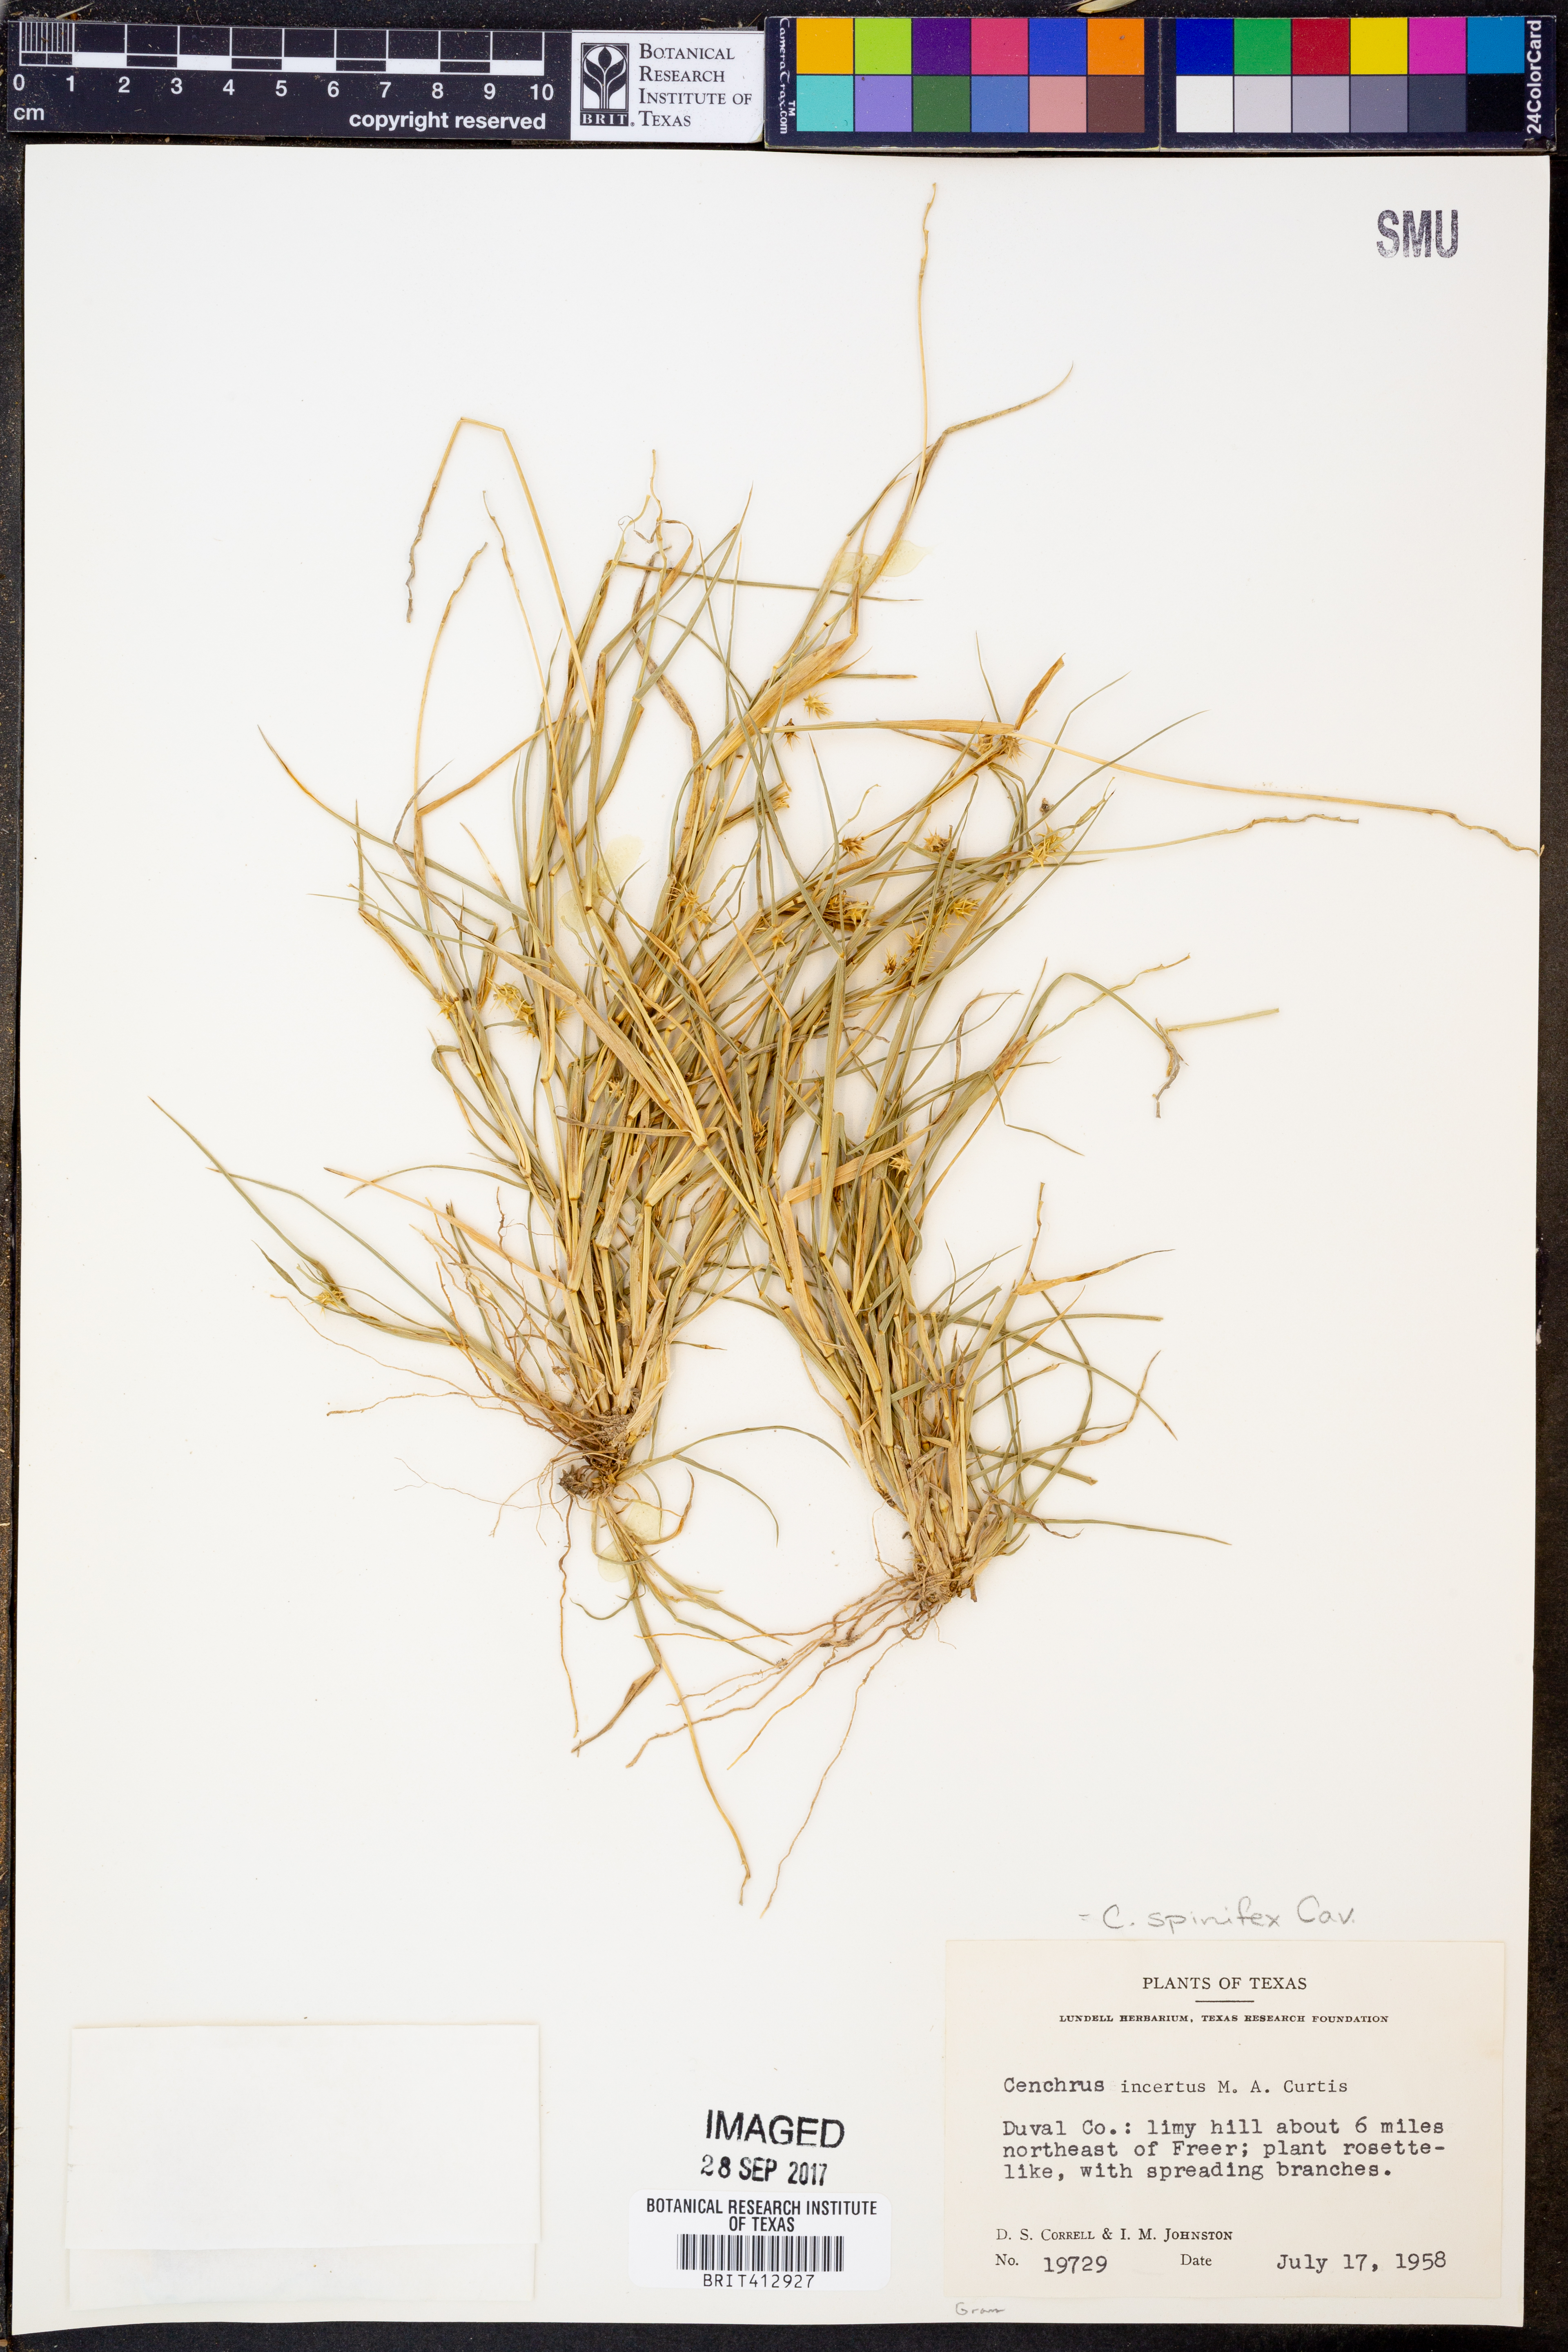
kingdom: Plantae
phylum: Tracheophyta
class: Liliopsida
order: Poales
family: Poaceae
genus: Cenchrus
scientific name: Cenchrus spinifex
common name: Coast sandbur
